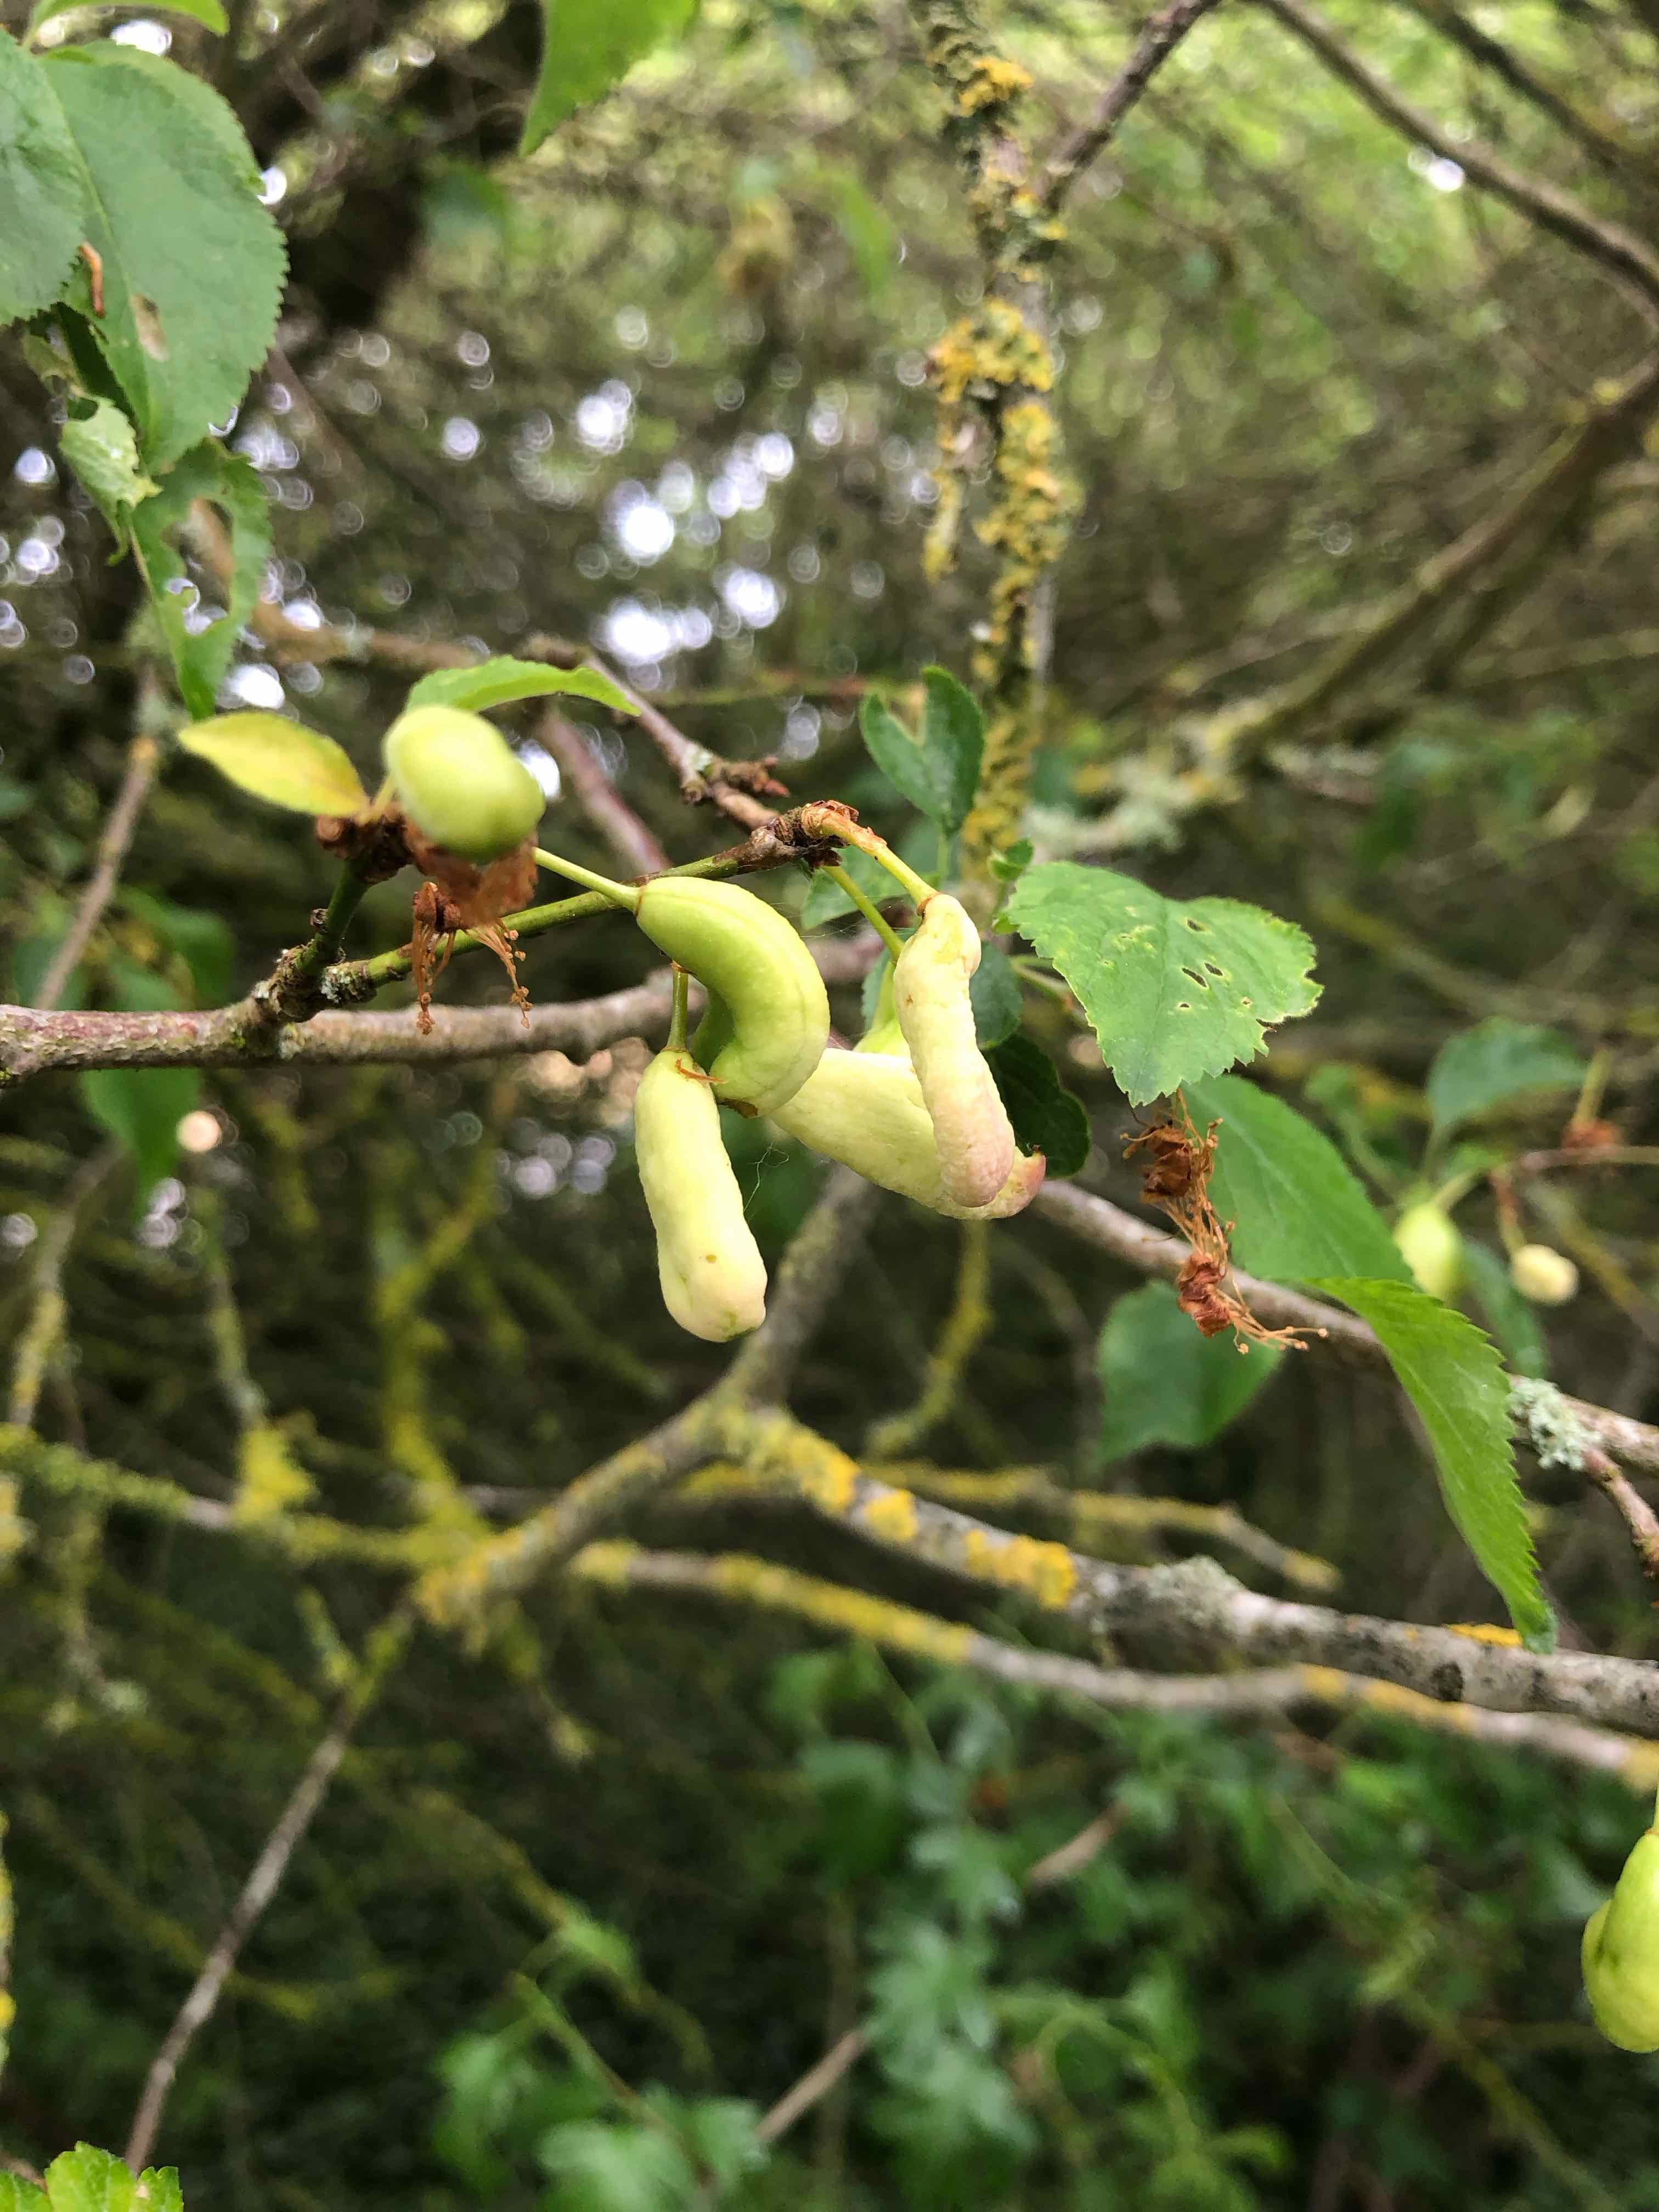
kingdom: Fungi
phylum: Ascomycota
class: Taphrinomycetes
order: Taphrinales
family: Taphrinaceae
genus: Taphrina
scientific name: Taphrina pruni
